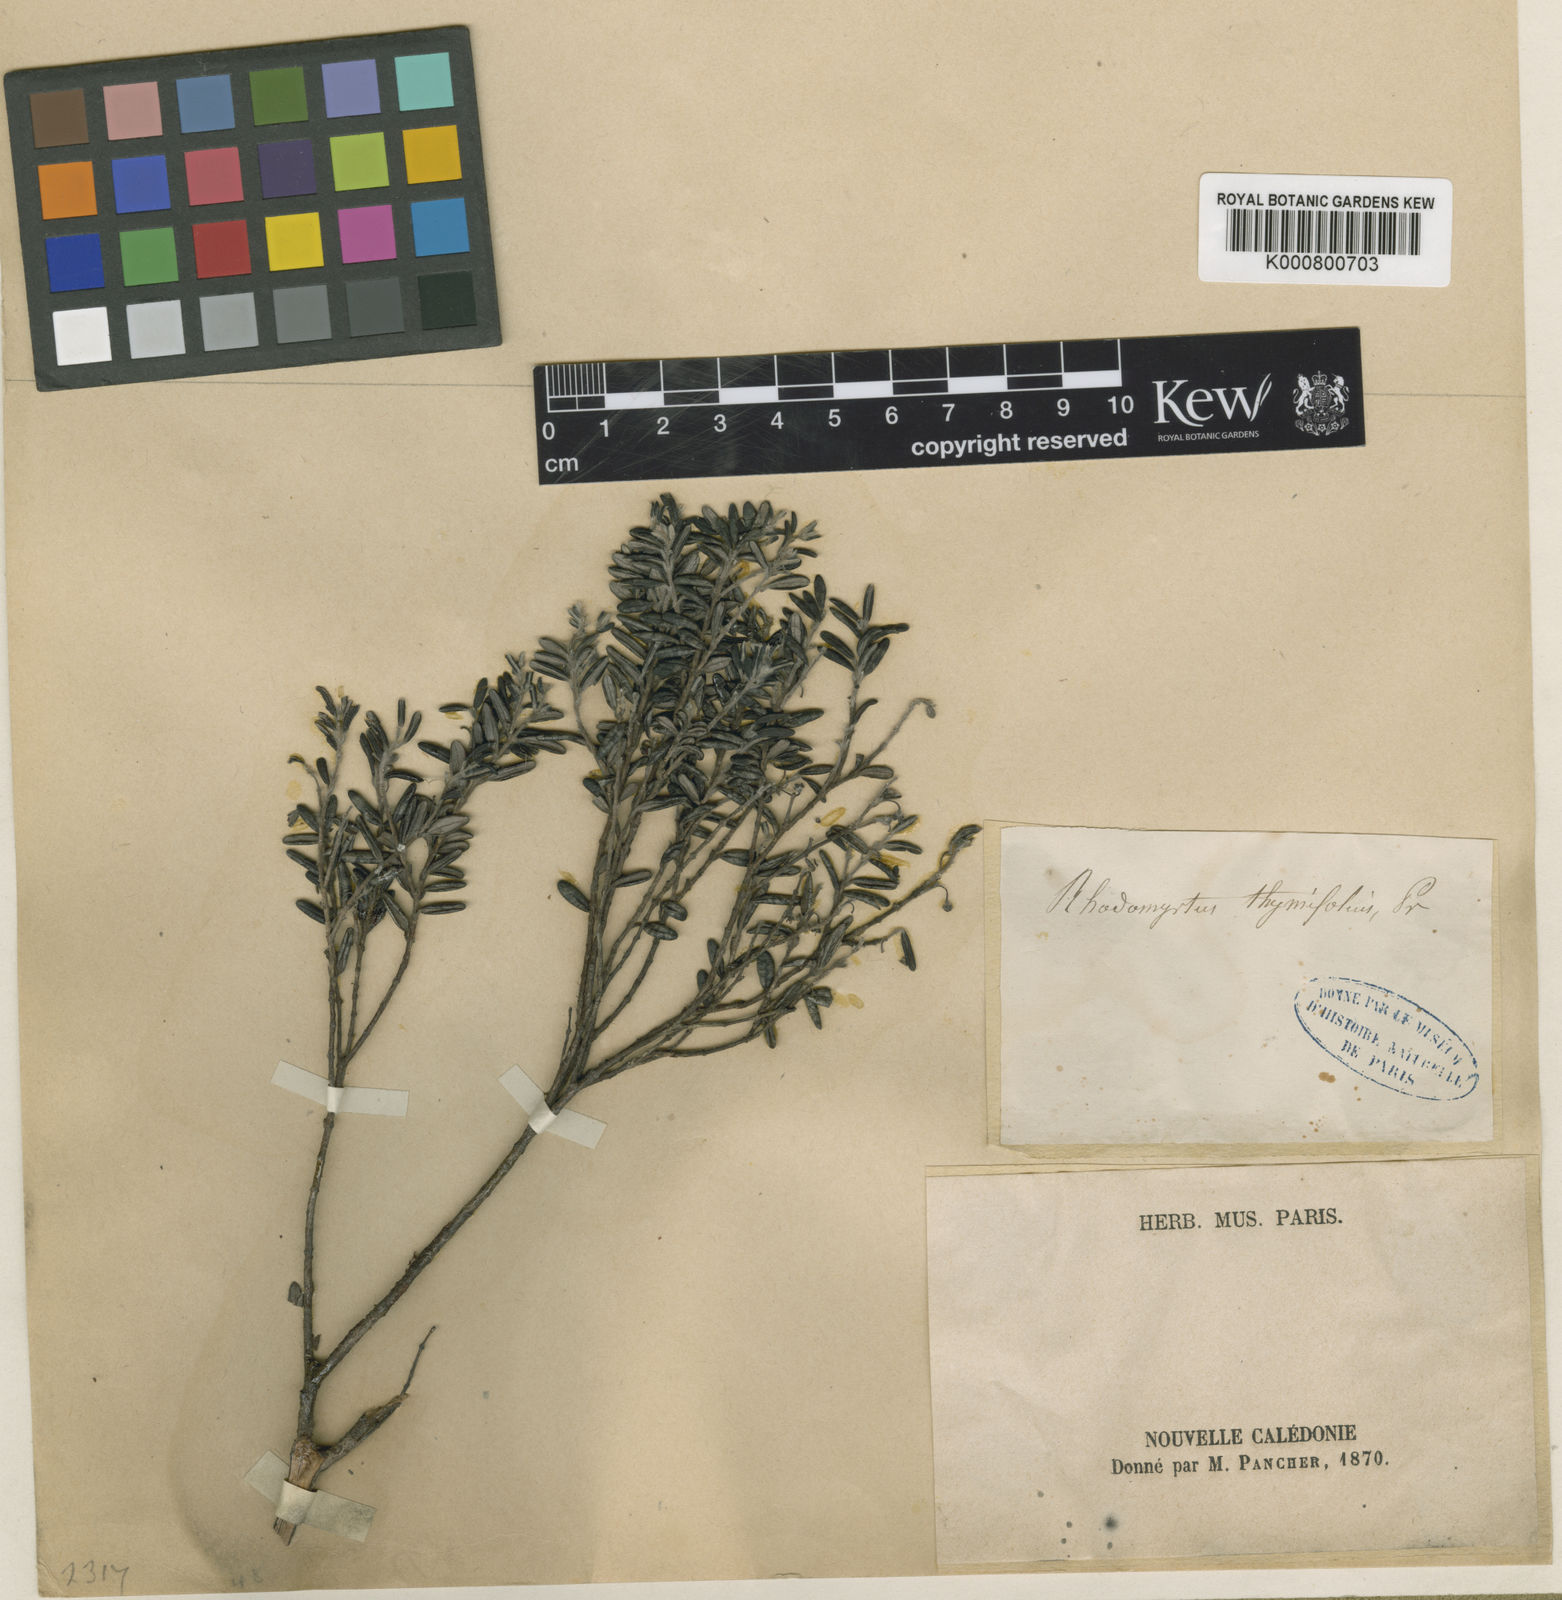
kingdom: Plantae
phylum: Tracheophyta
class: Magnoliopsida
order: Myrtales
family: Myrtaceae
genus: Uromyrtus
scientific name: Uromyrtus thymifolia
